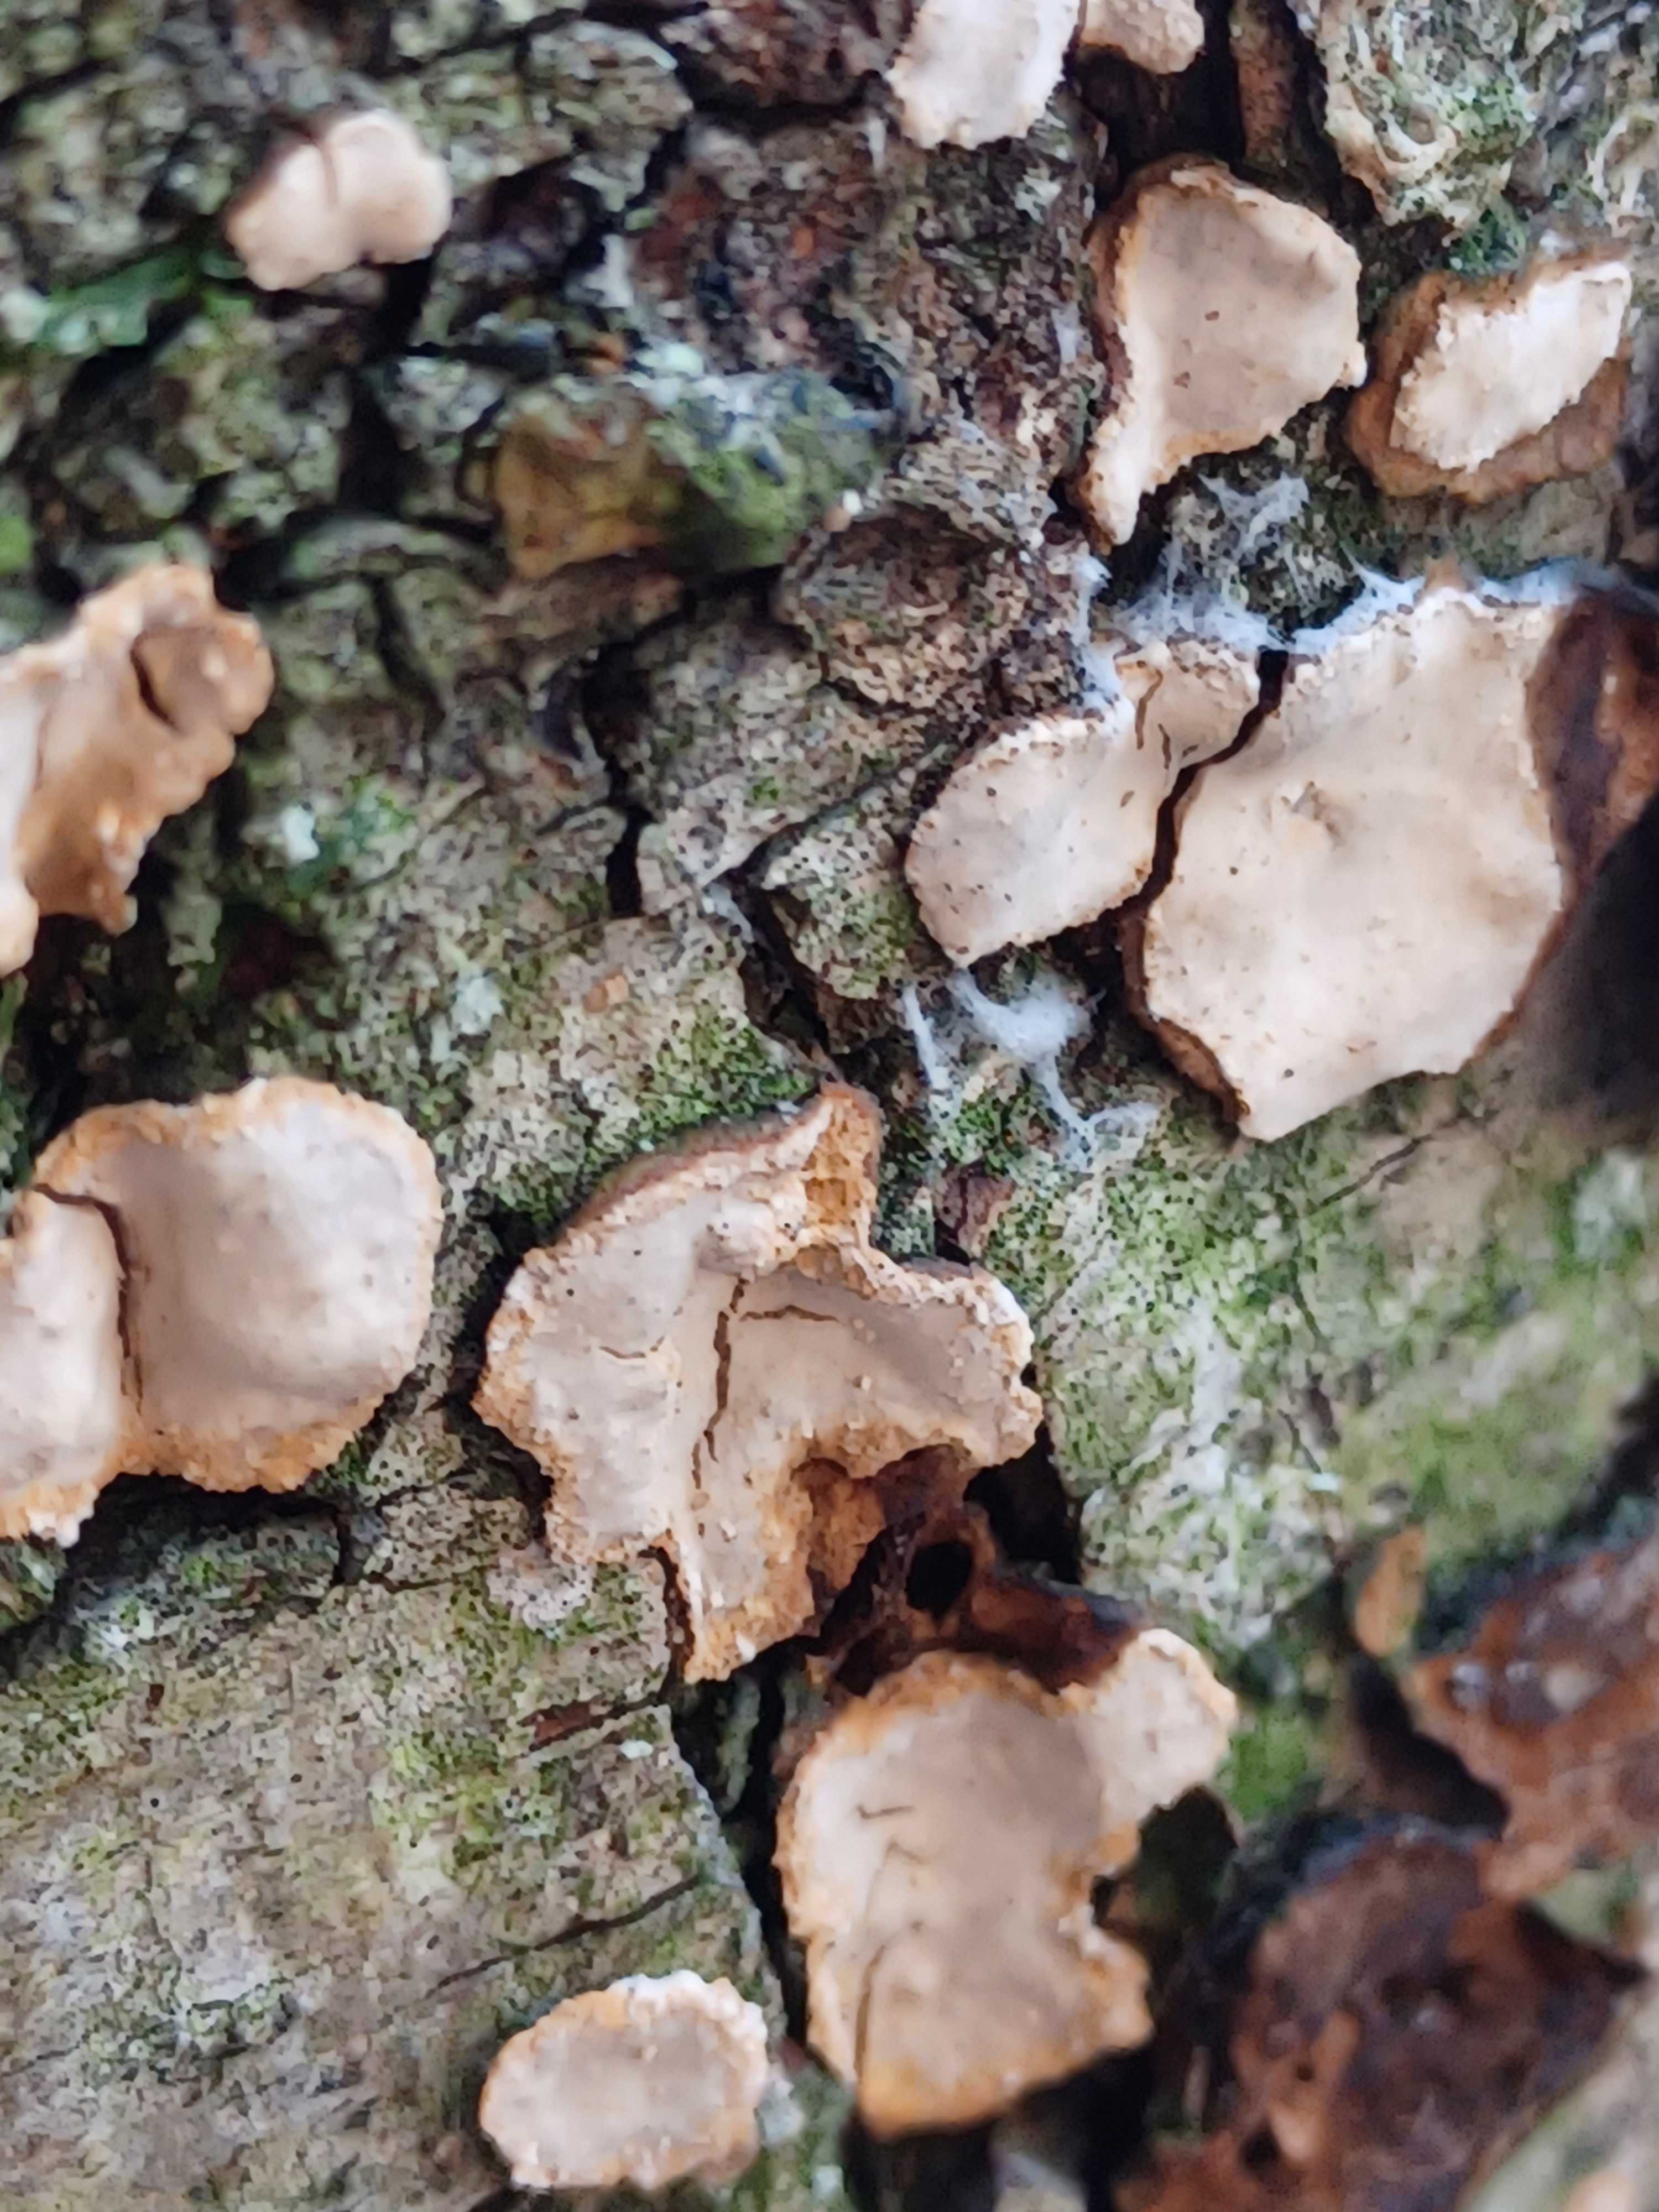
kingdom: Fungi
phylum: Basidiomycota
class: Agaricomycetes
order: Russulales
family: Stereaceae
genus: Stereum
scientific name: Stereum rugosum
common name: rynket lædersvamp
